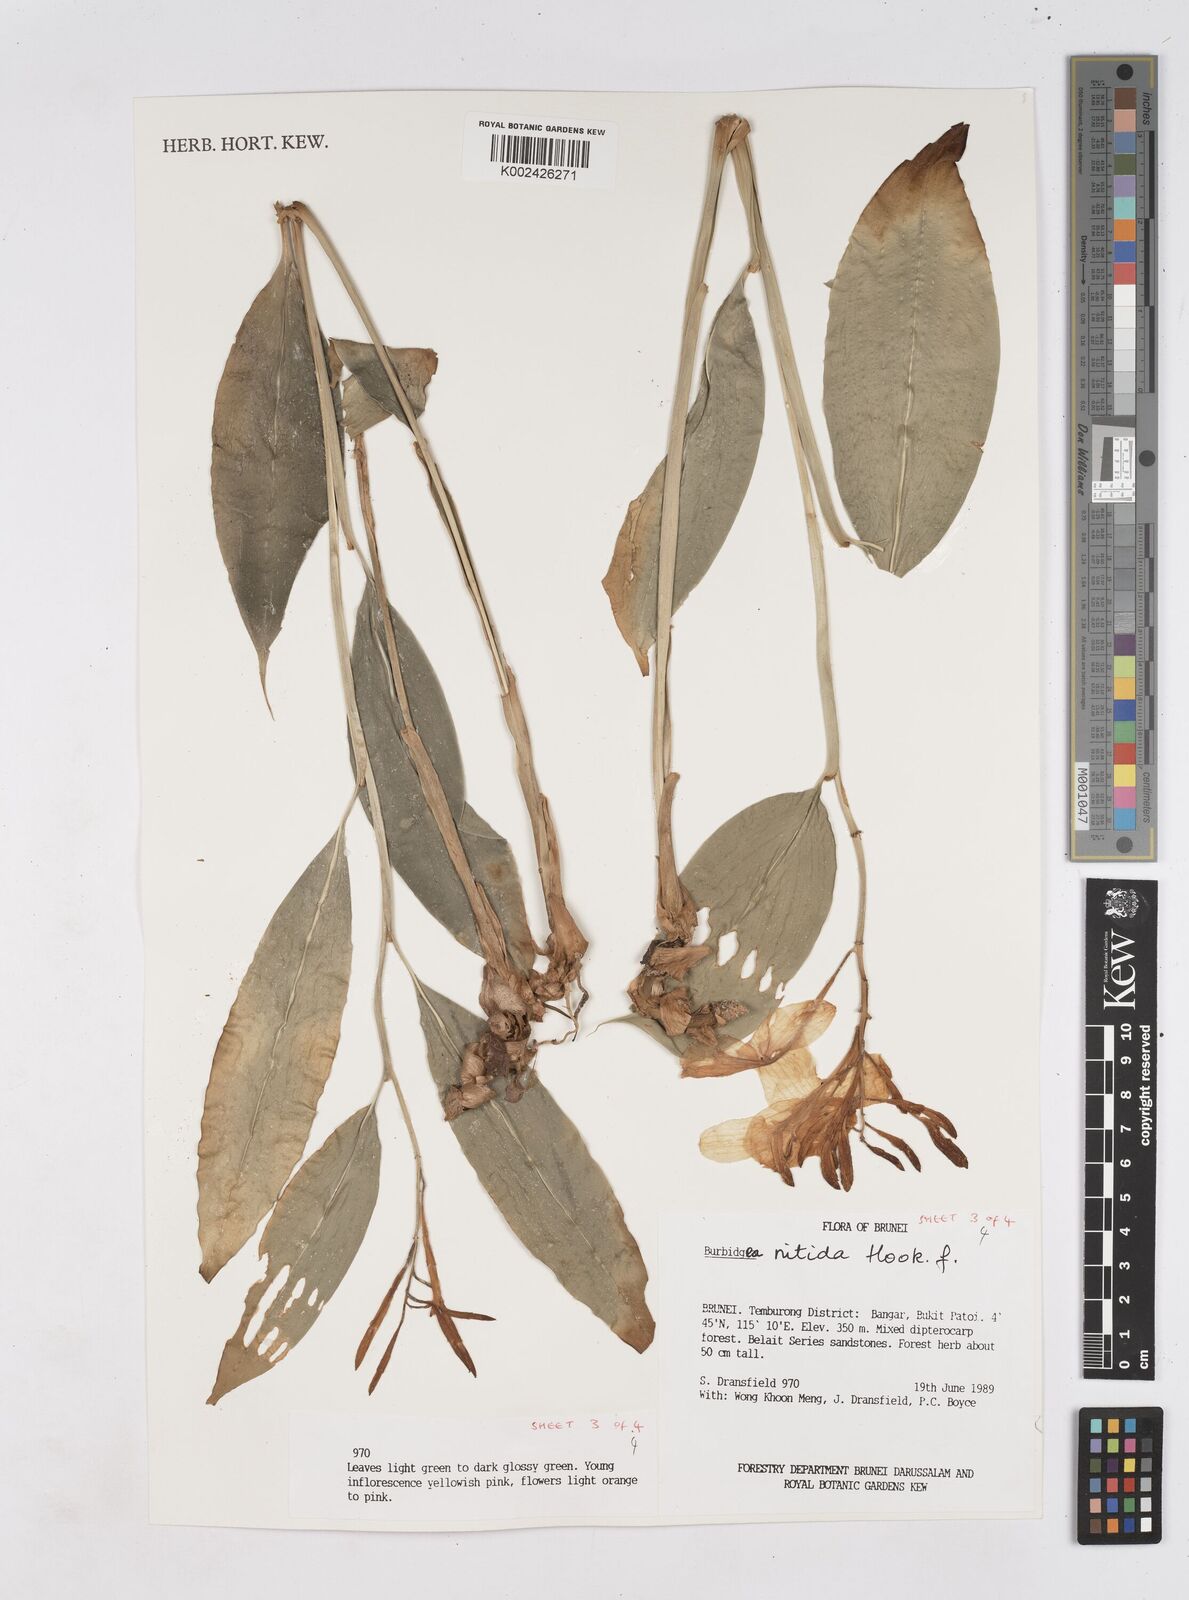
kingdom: Plantae
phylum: Tracheophyta
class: Liliopsida
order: Zingiberales
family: Zingiberaceae
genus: Burbidgea
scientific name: Burbidgea nitida
